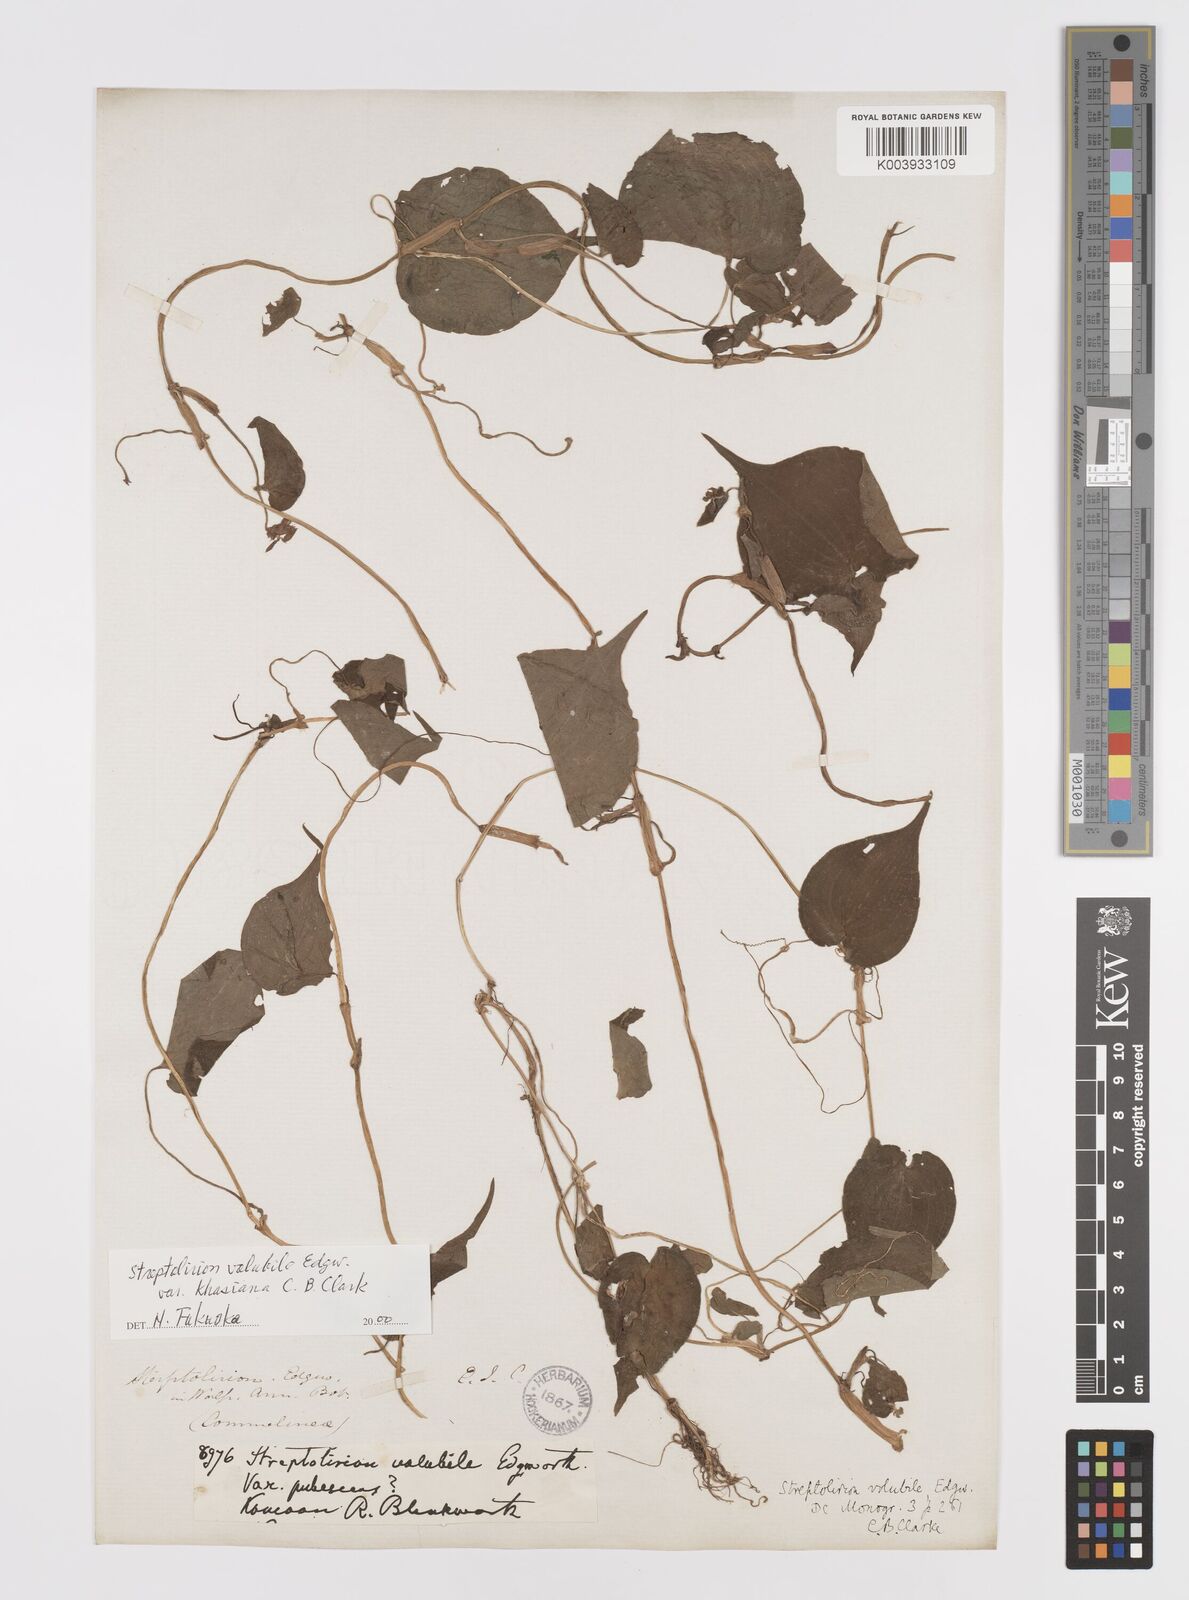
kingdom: Plantae
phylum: Tracheophyta
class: Liliopsida
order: Commelinales
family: Commelinaceae
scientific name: Commelinaceae
